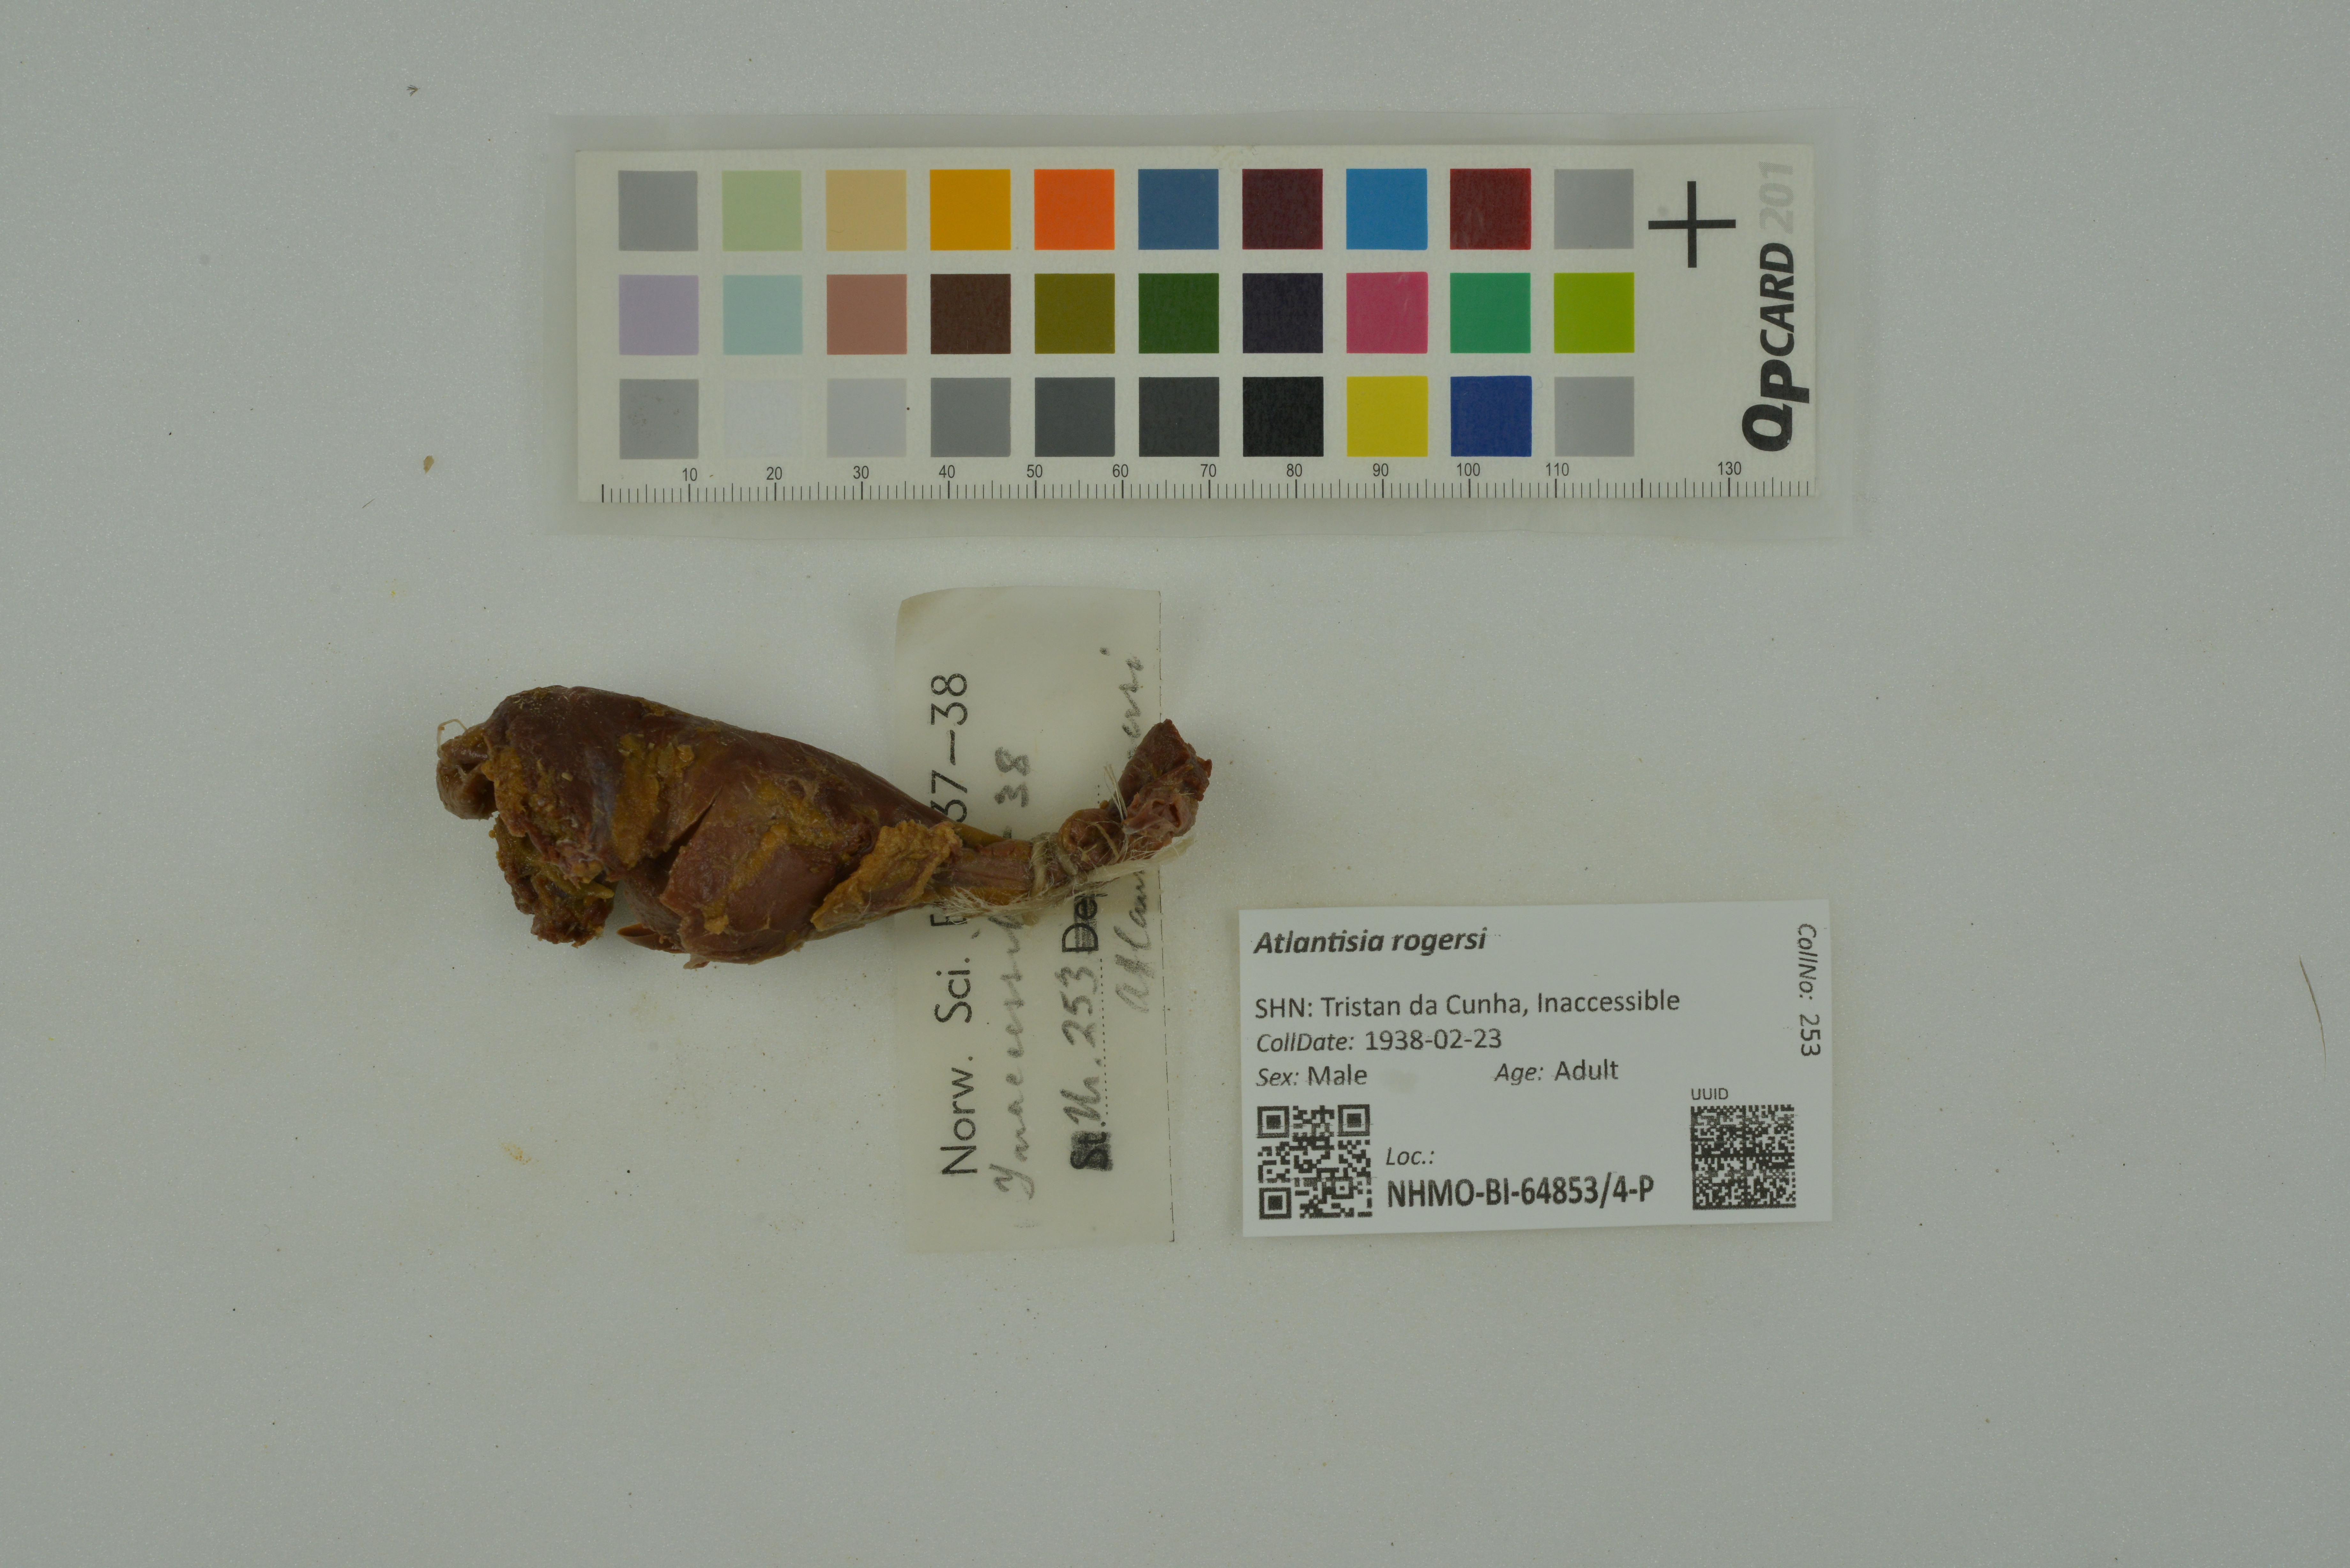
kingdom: Animalia
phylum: Chordata
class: Aves
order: Gruiformes
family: Rallidae
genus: Atlantisia
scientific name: Atlantisia rogersi
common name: Inaccessible island rail
